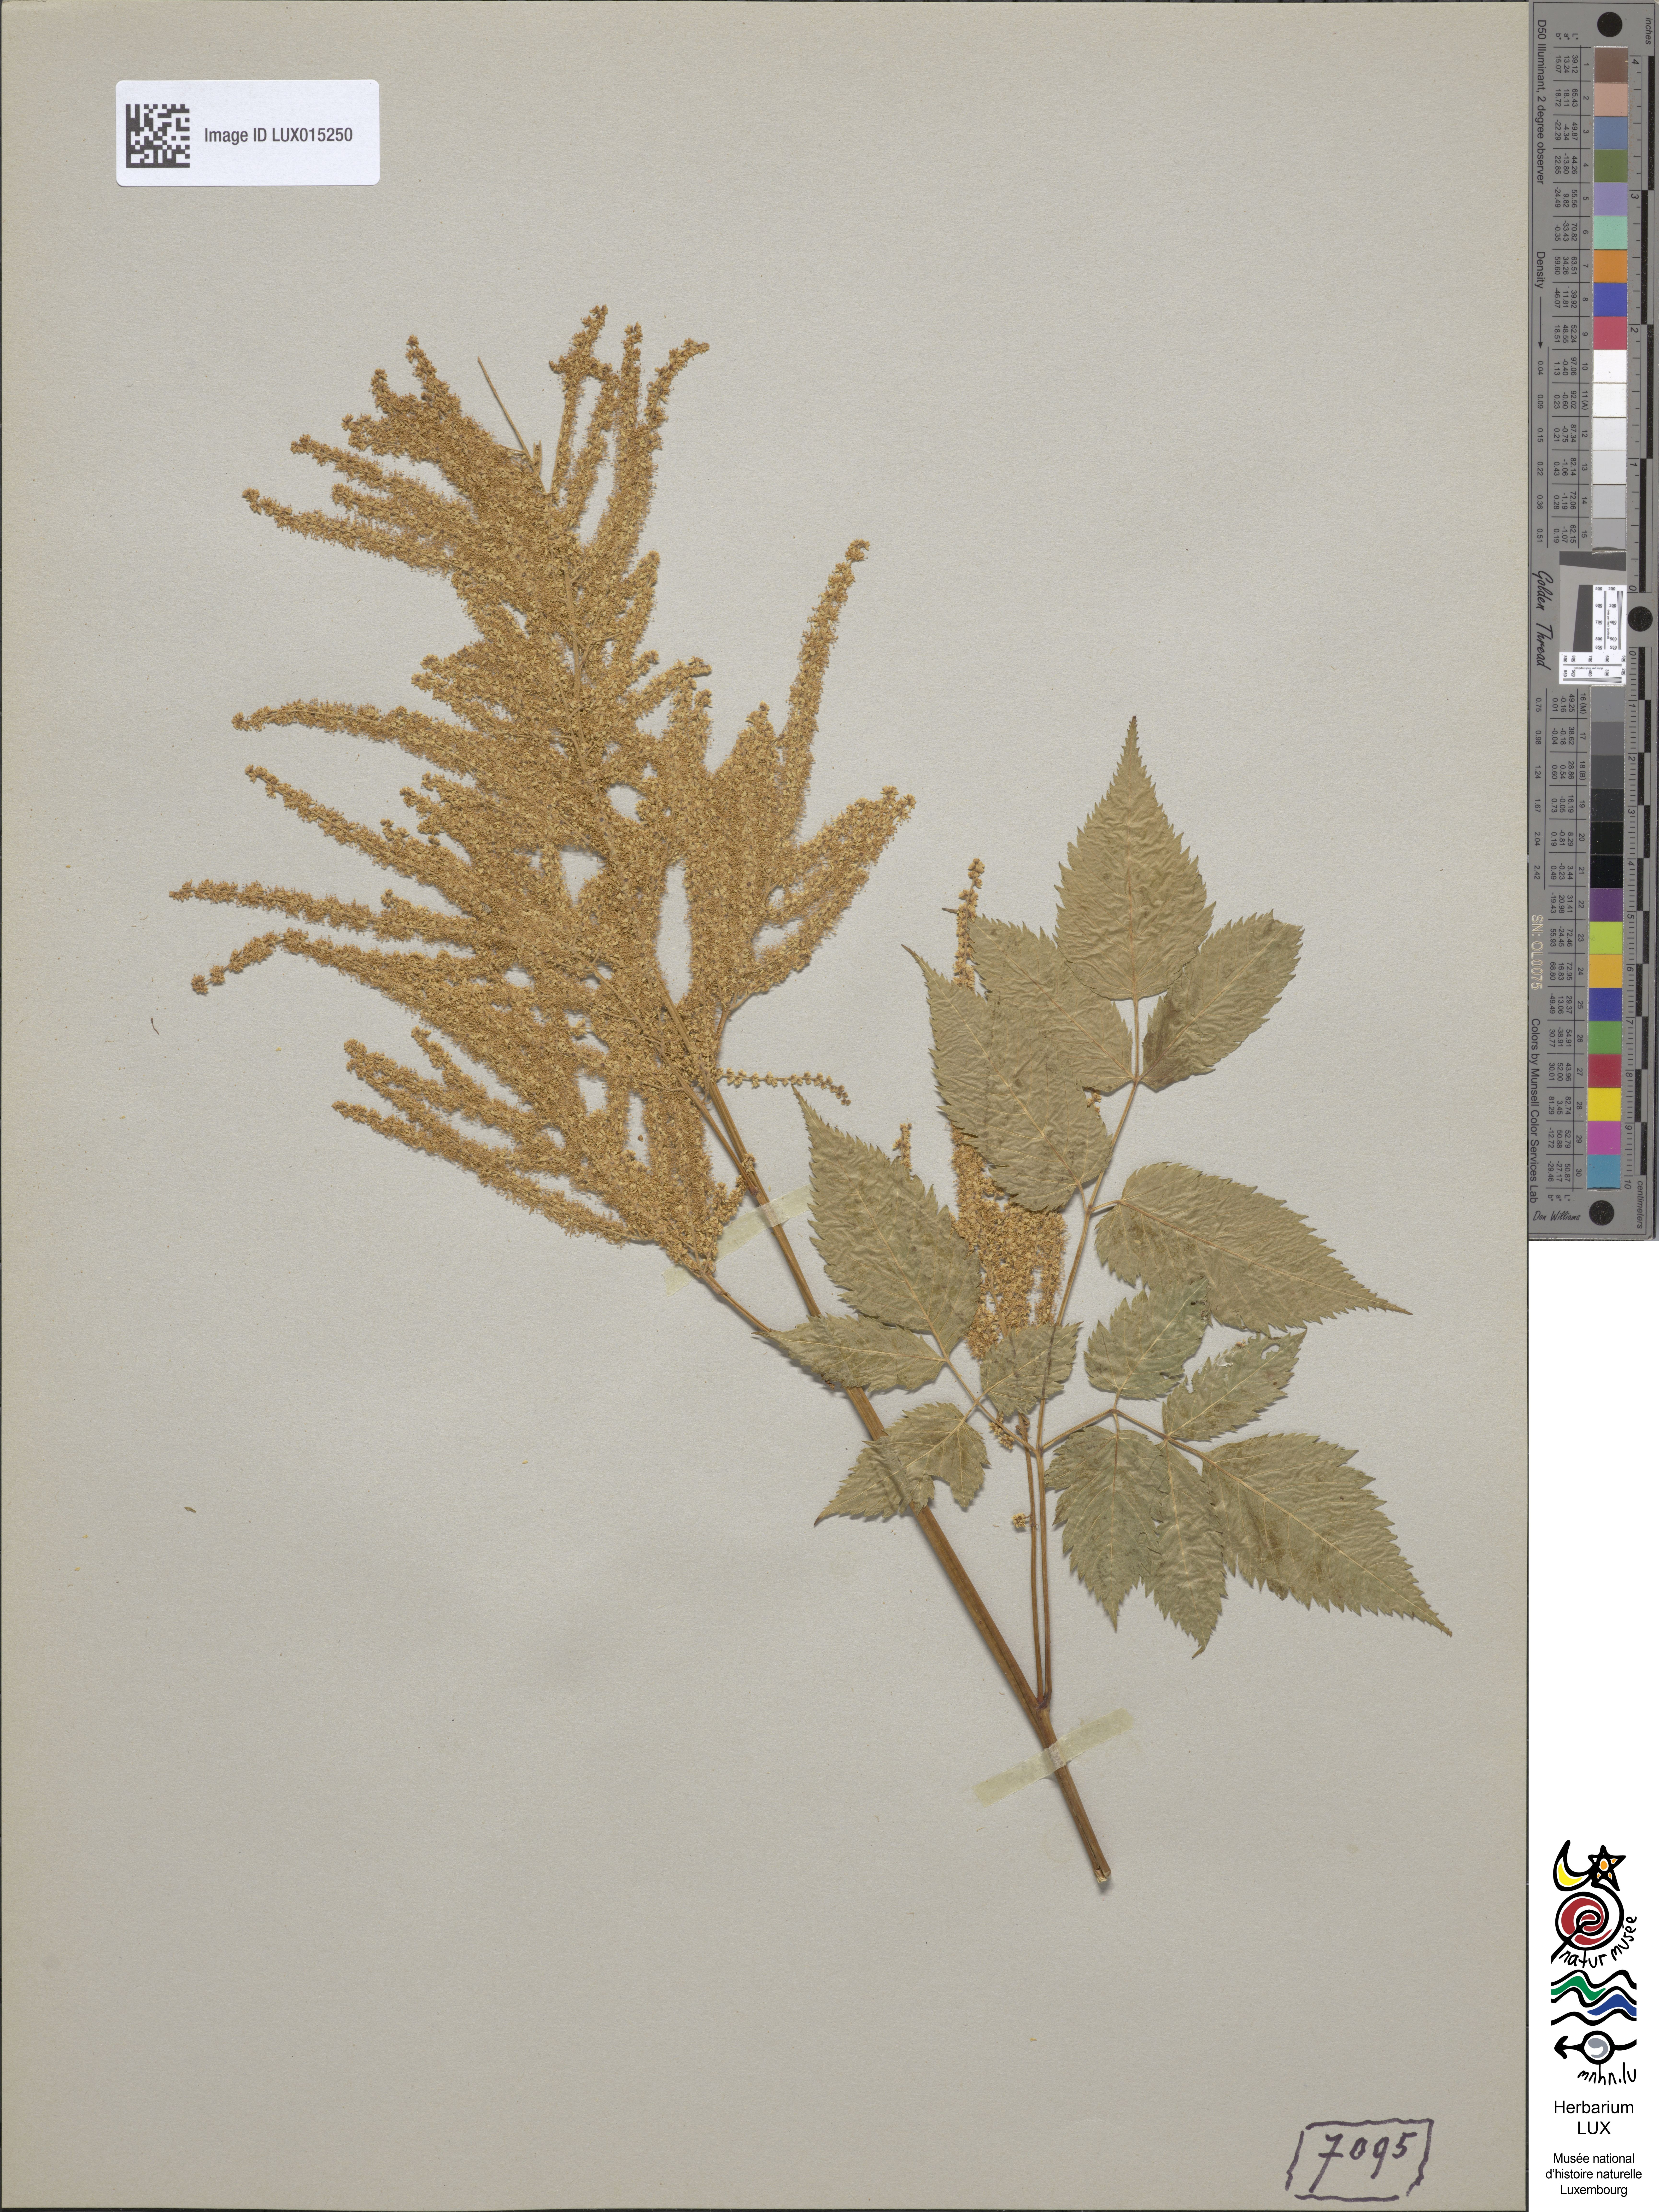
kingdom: Plantae
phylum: Tracheophyta
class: Magnoliopsida
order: Rosales
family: Rosaceae
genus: Aruncus
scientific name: Aruncus dioicus
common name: Buck's-beard
